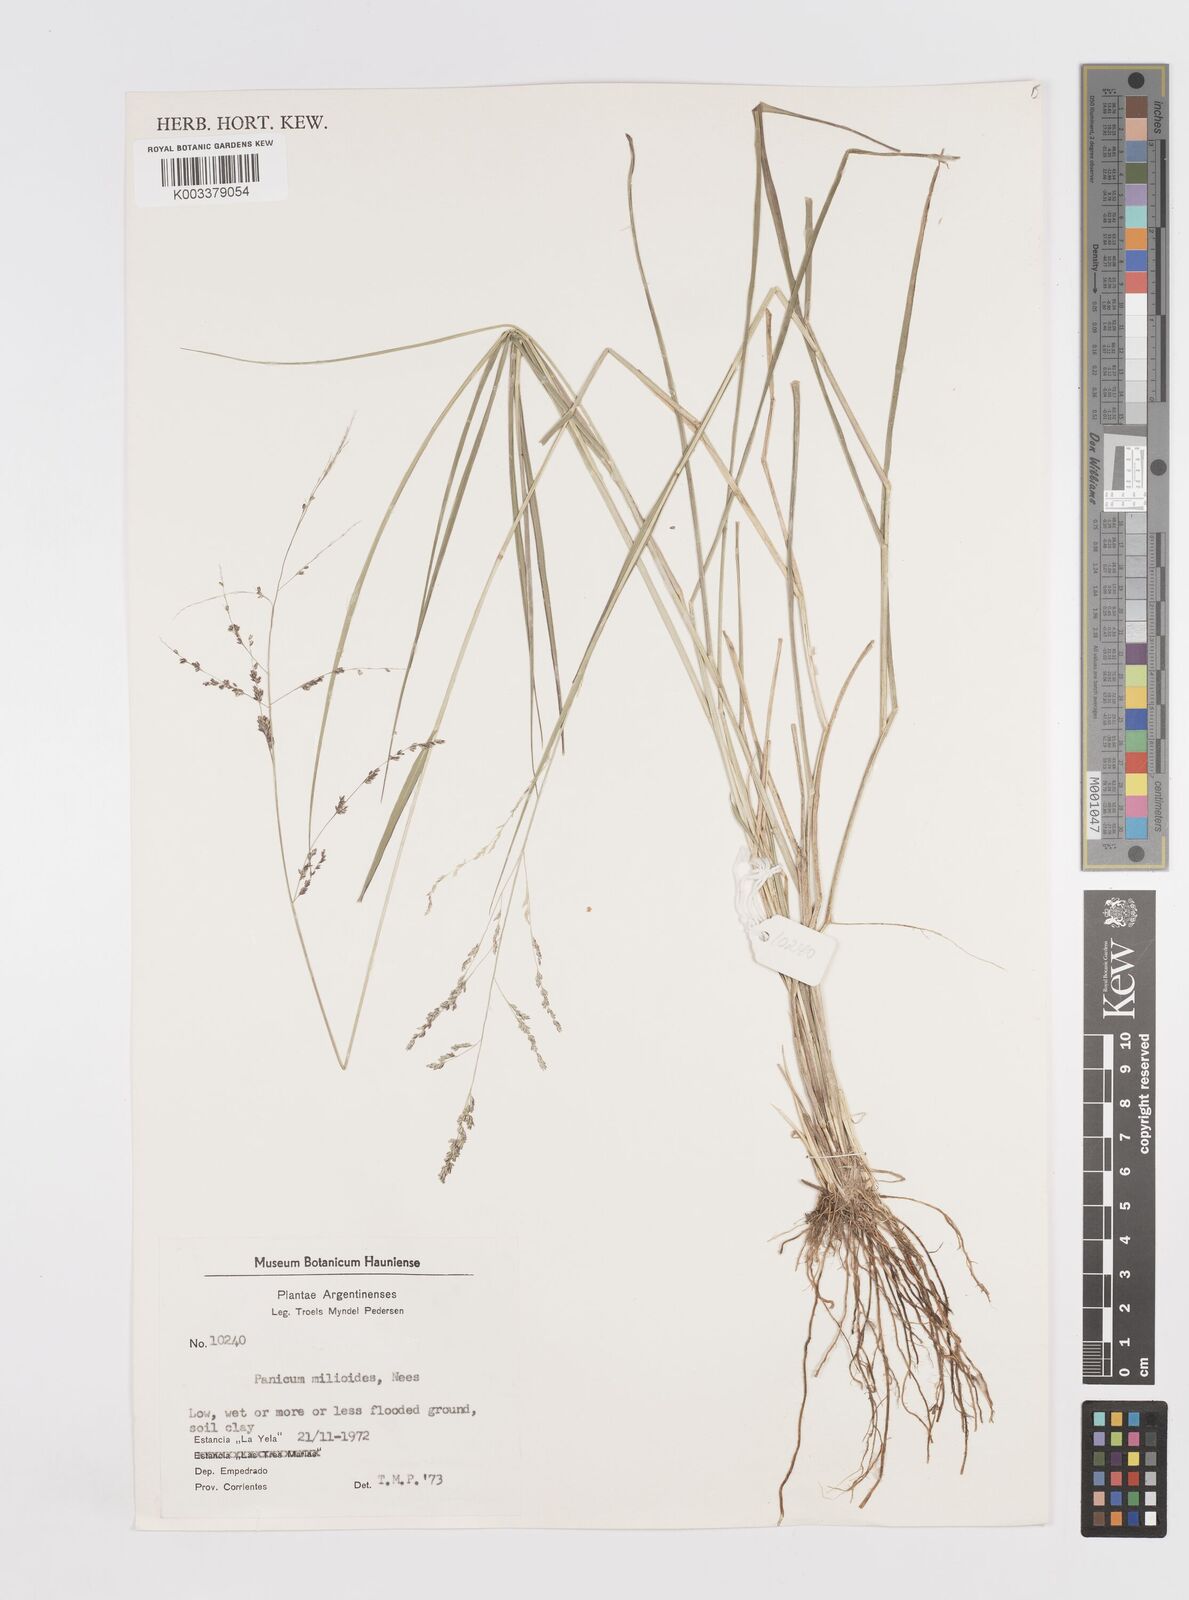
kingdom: Plantae
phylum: Tracheophyta
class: Liliopsida
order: Poales
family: Poaceae
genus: Steinchisma
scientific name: Steinchisma hians
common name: Gaping panic grass
